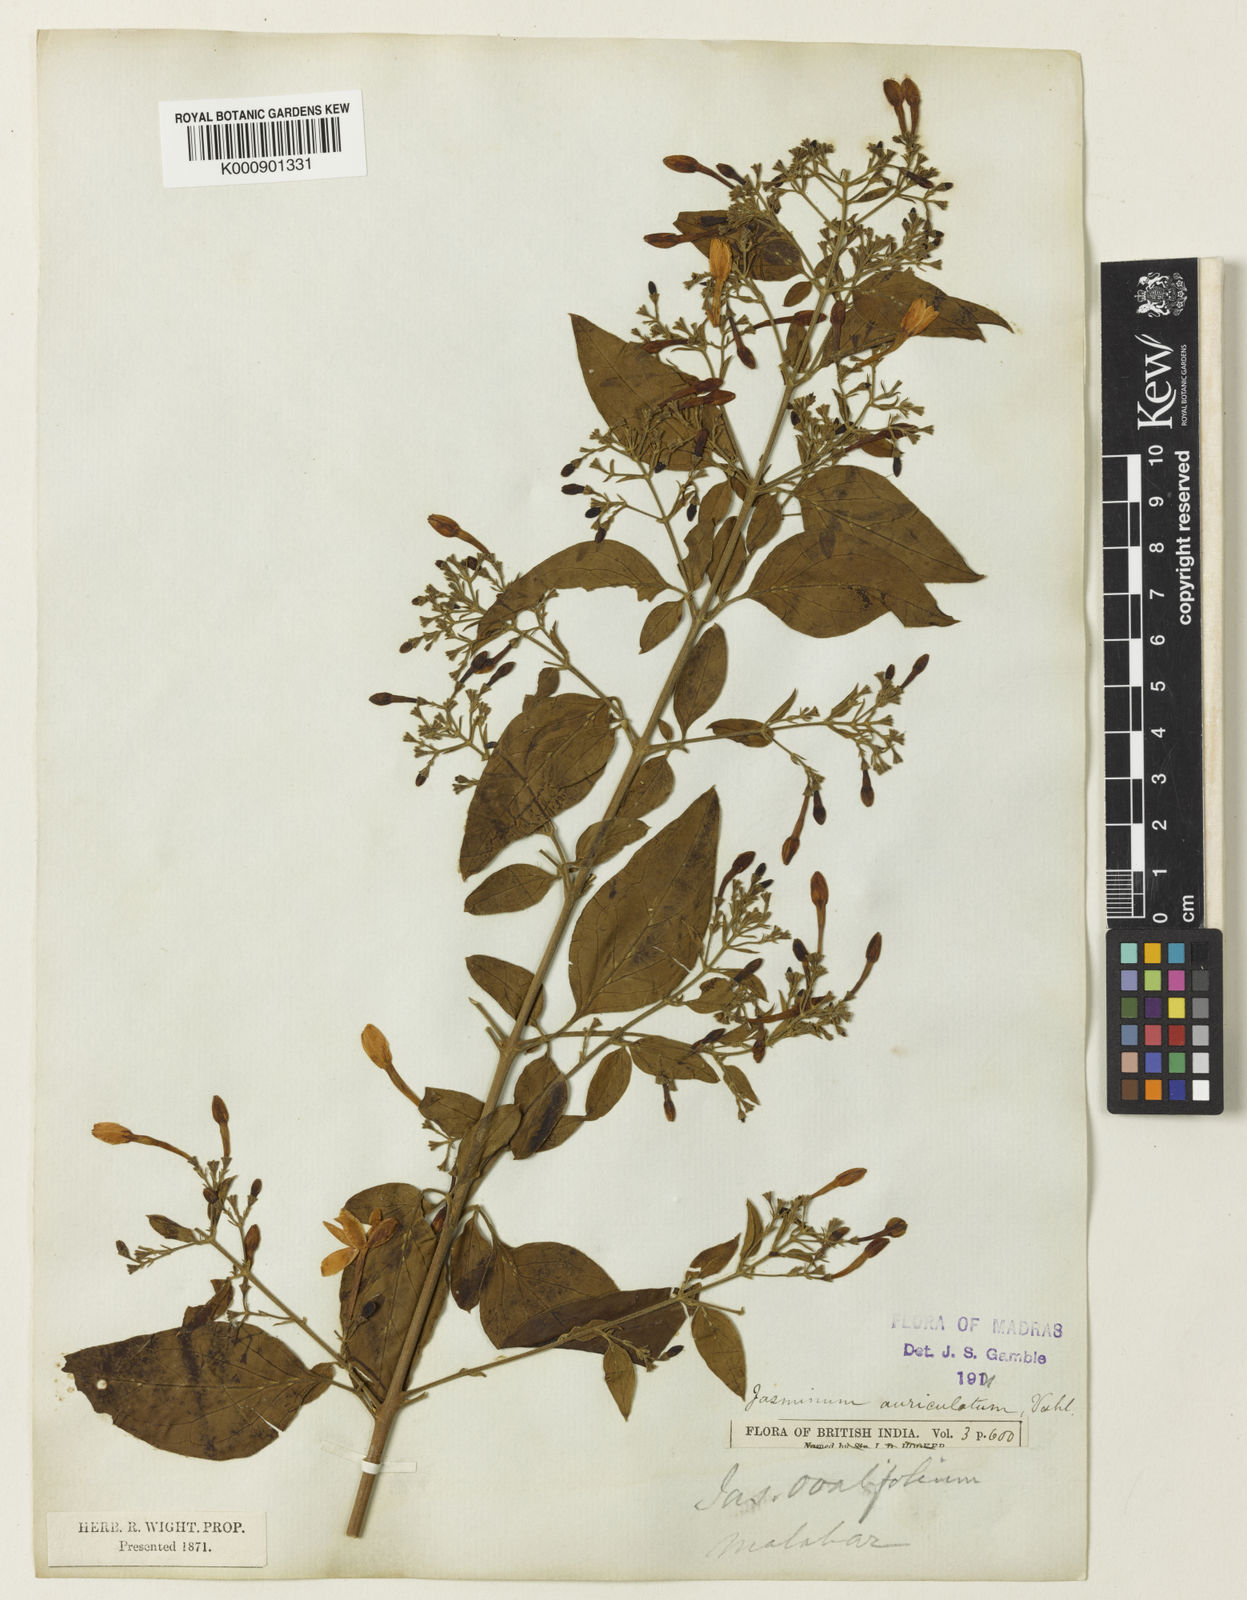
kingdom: Plantae
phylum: Tracheophyta
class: Magnoliopsida
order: Lamiales
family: Oleaceae
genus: Jasminum
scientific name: Jasminum auriculatum
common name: Needle-flower jasmine
